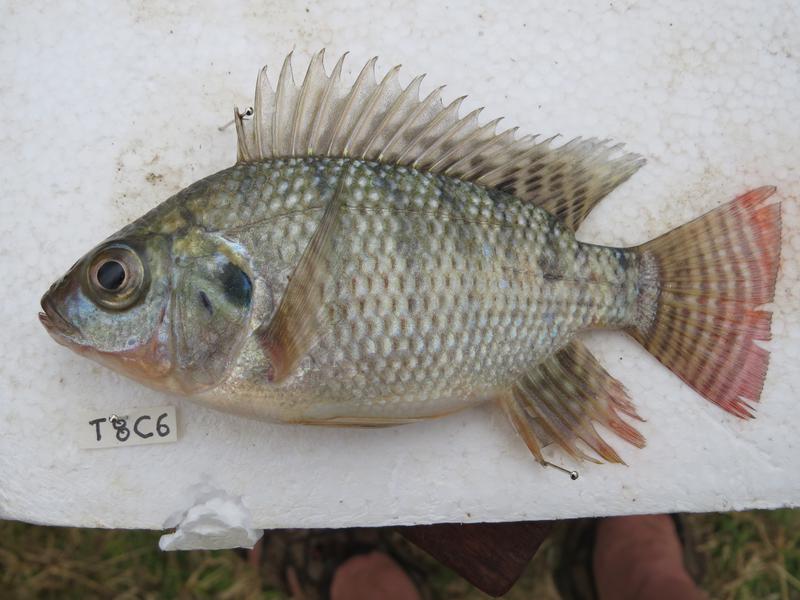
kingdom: Animalia
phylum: Chordata
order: Perciformes
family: Cichlidae
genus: Oreochromis
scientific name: Oreochromis niloticus
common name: Nile tilapia
